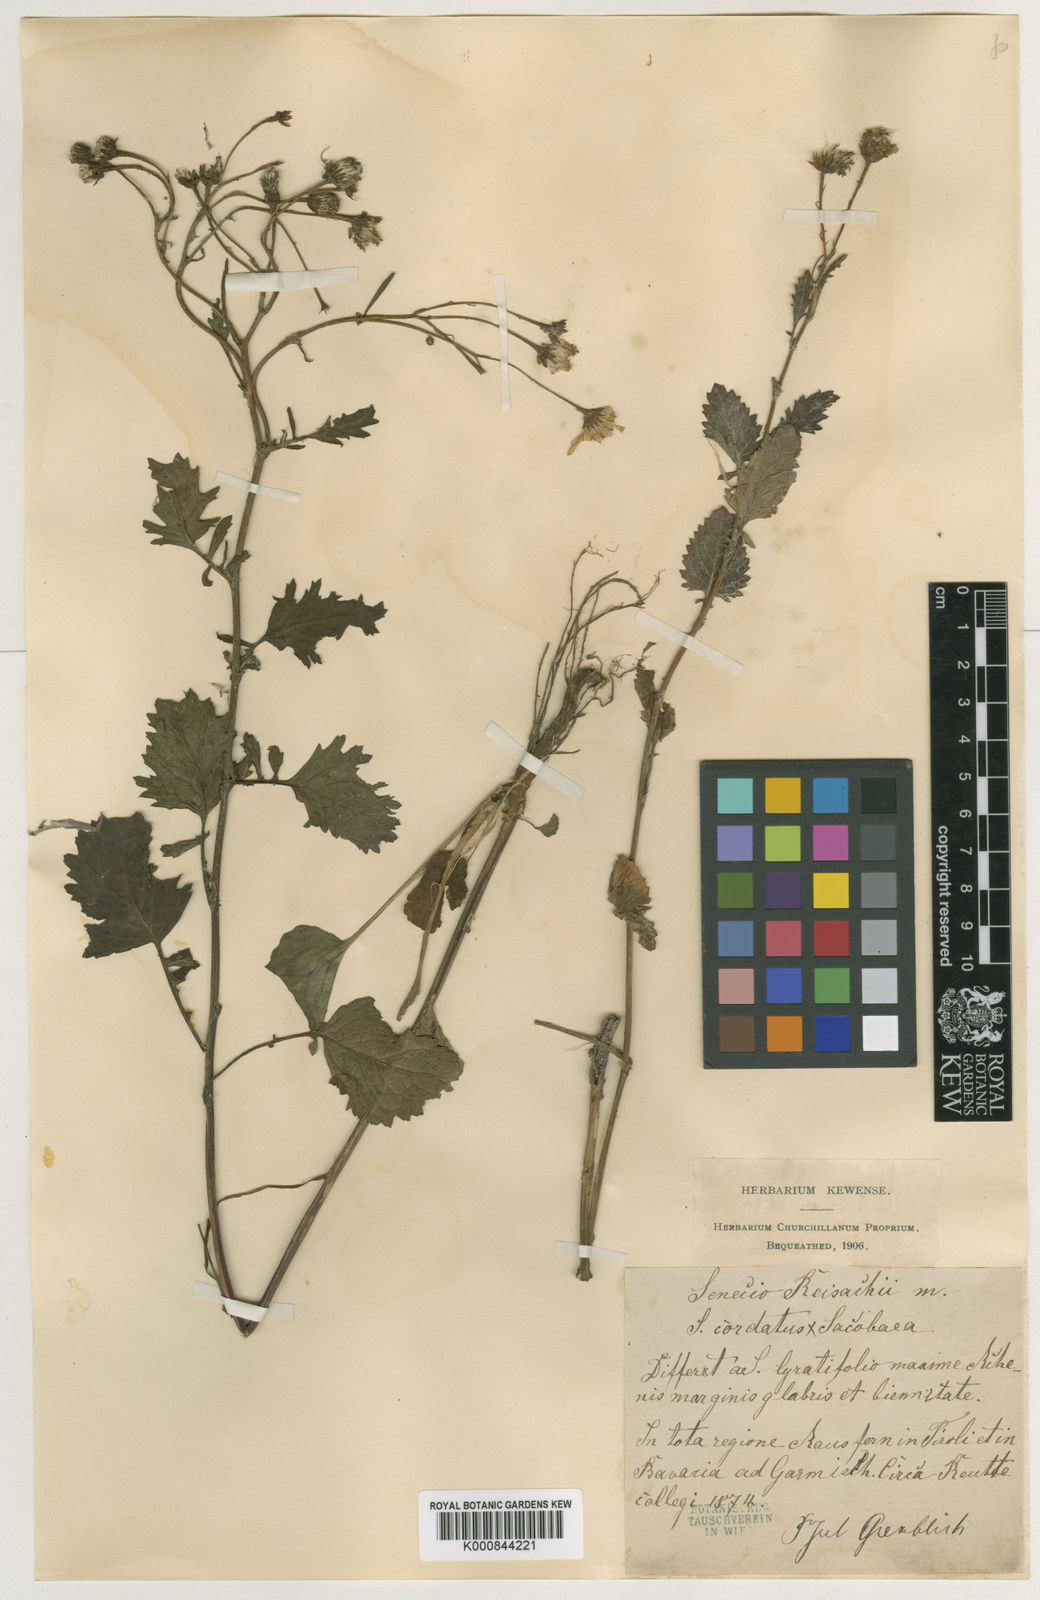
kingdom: Plantae
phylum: Tracheophyta
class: Magnoliopsida
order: Asterales
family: Asteraceae
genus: Jacobaea
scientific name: Jacobaea subalpina
